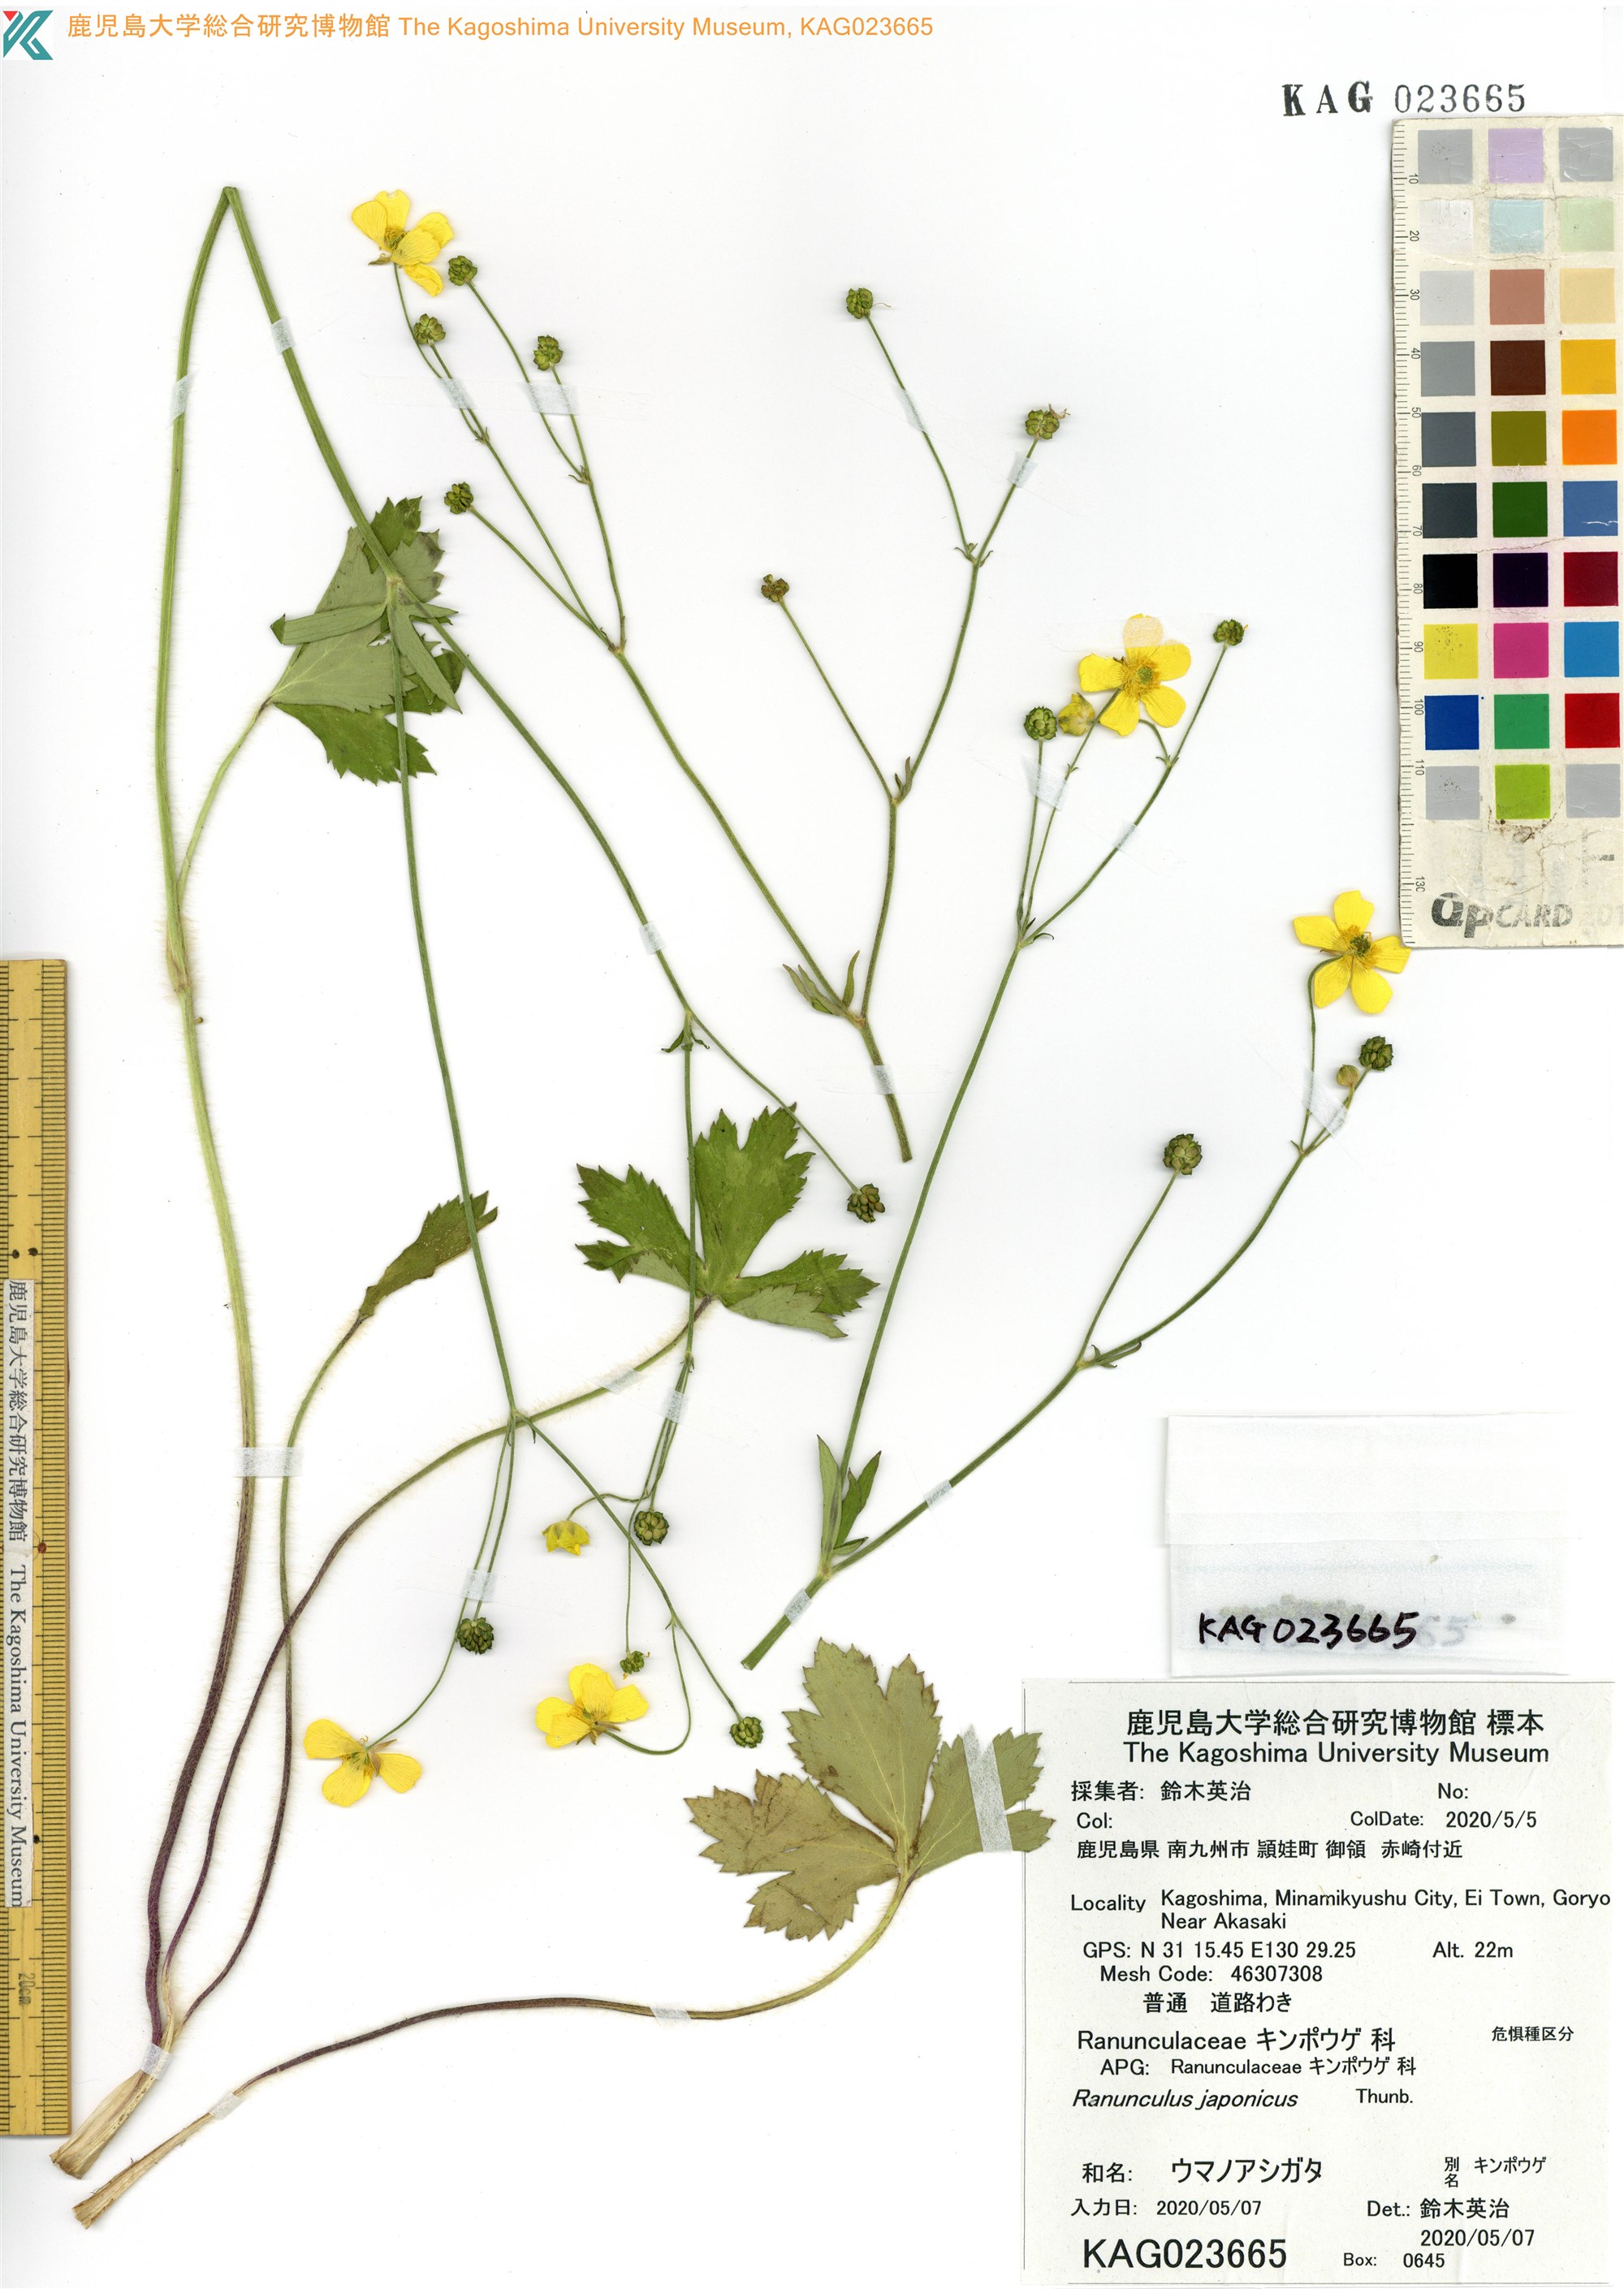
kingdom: Plantae
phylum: Tracheophyta
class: Magnoliopsida
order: Ranunculales
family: Ranunculaceae
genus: Ranunculus
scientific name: Ranunculus japonicus
